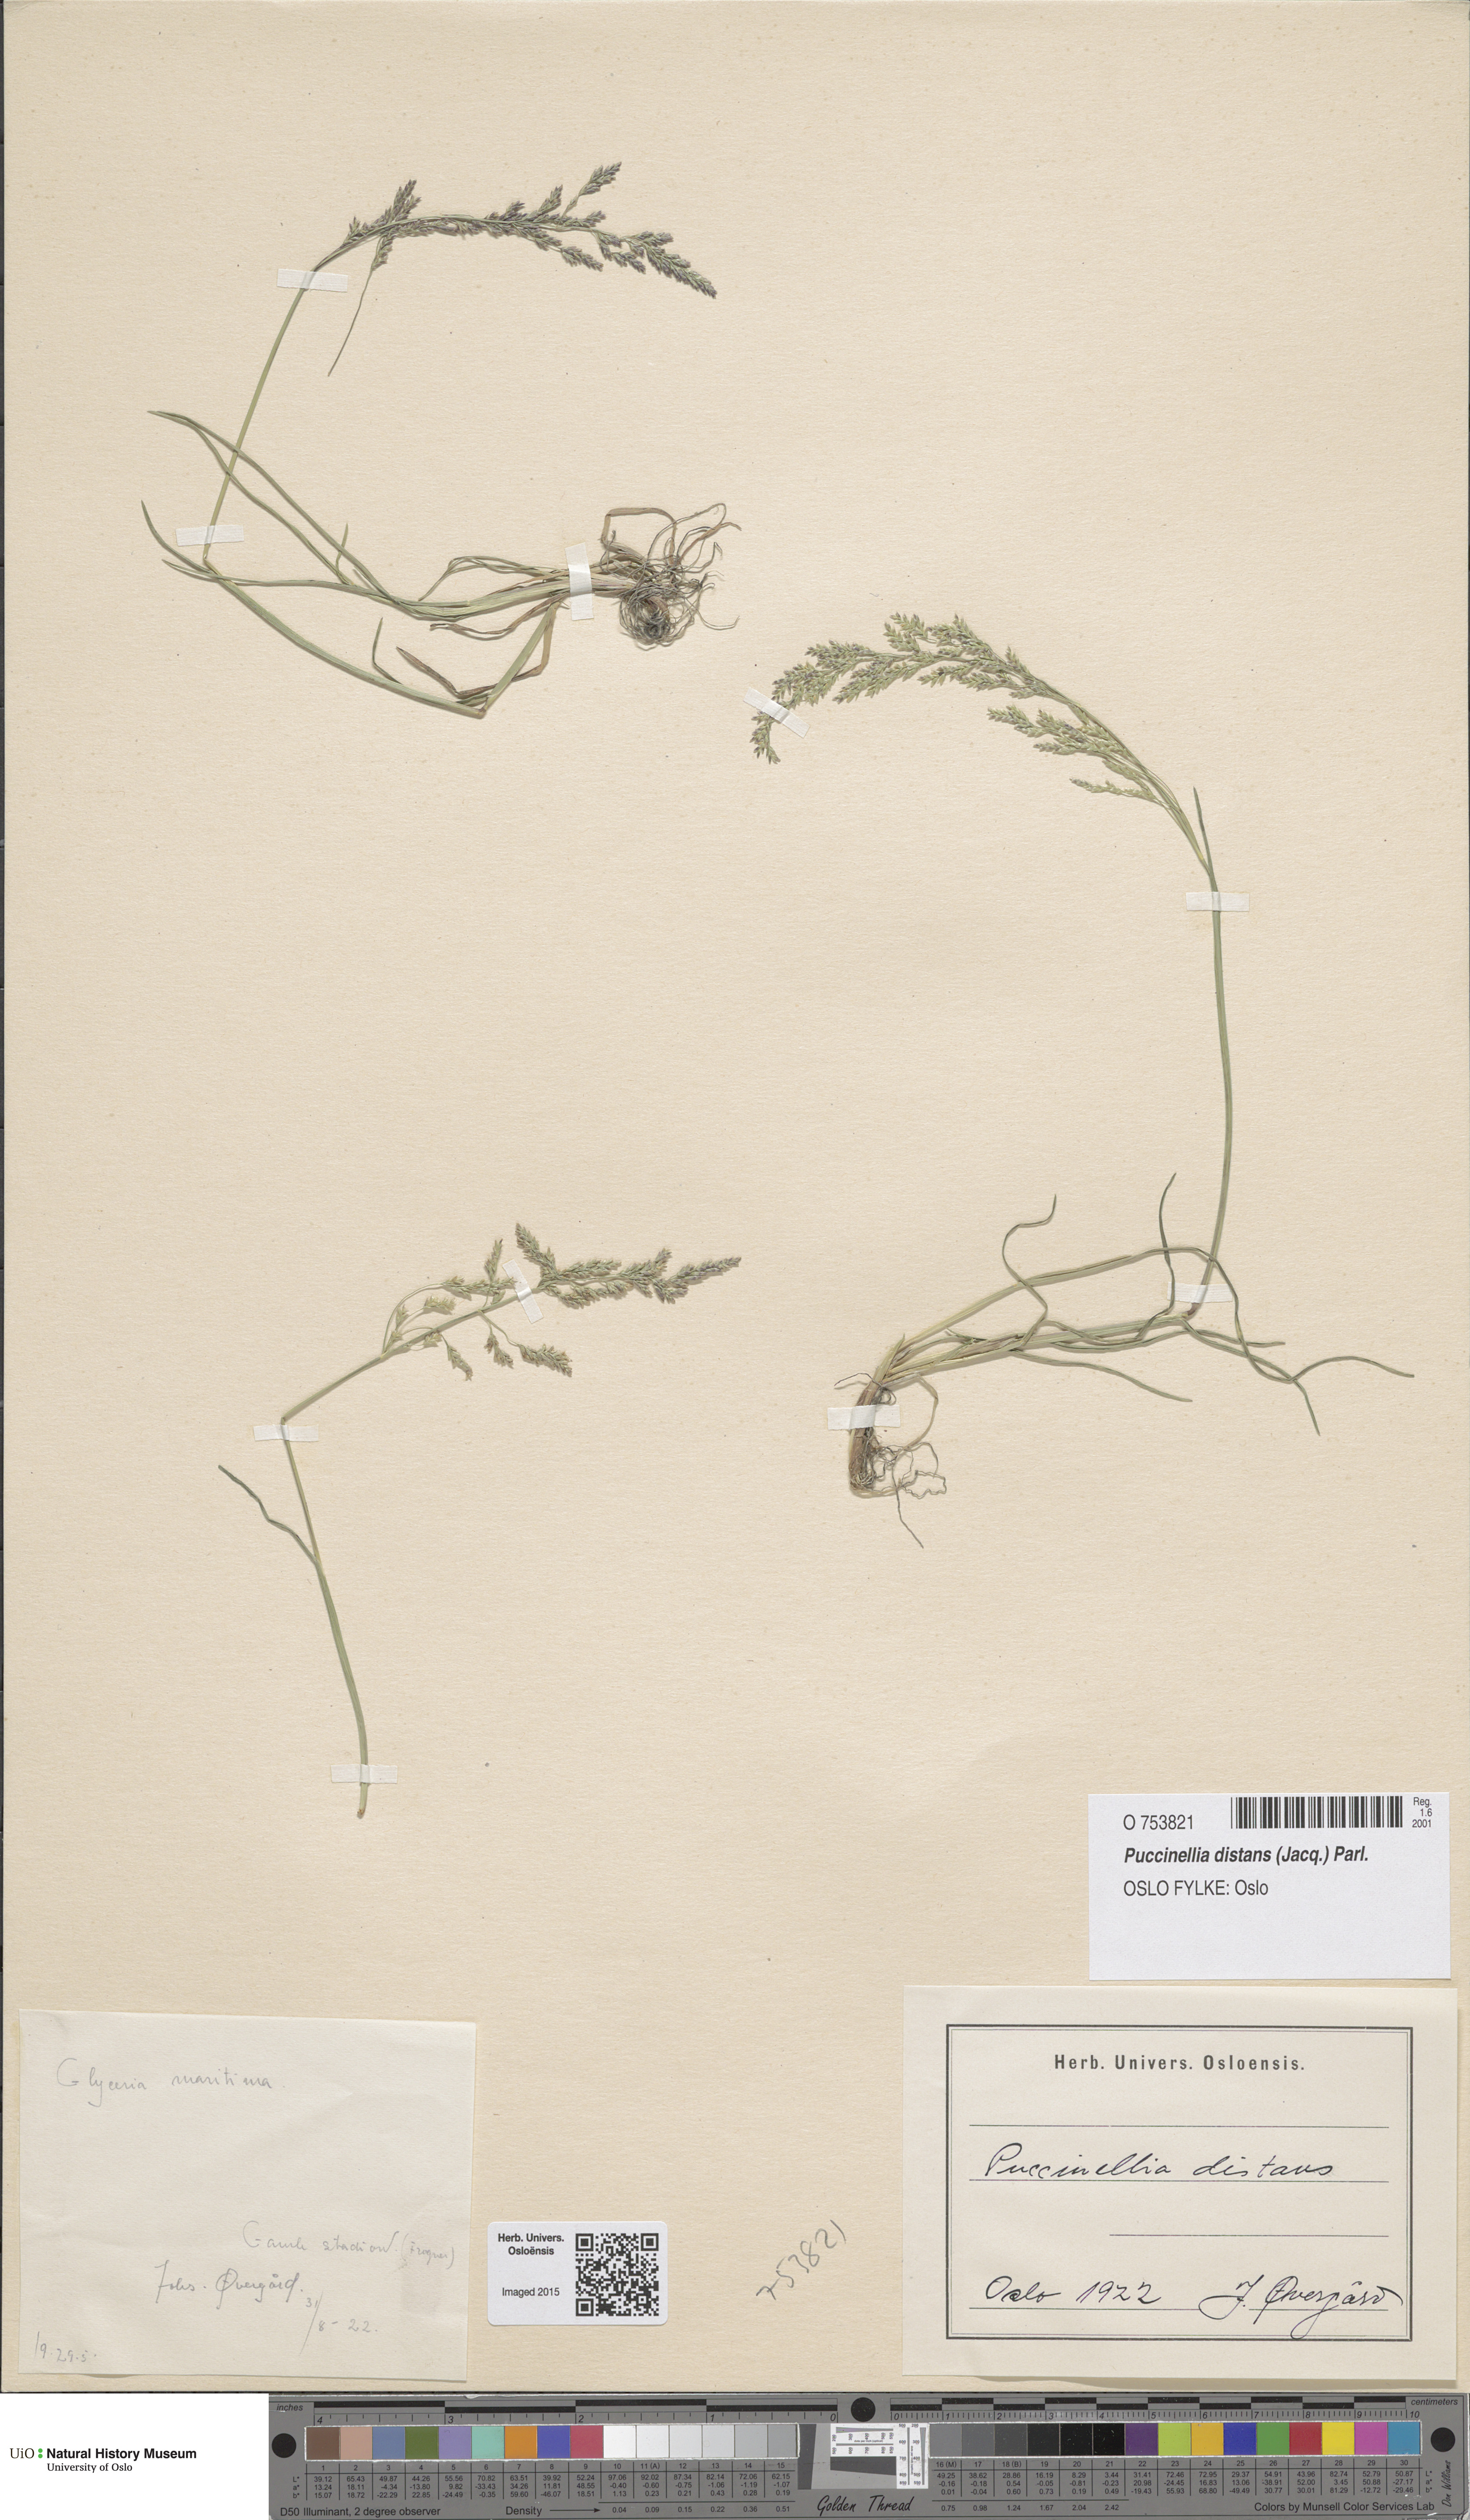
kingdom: Plantae
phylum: Tracheophyta
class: Liliopsida
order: Poales
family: Poaceae
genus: Glyceria
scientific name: Glyceria
